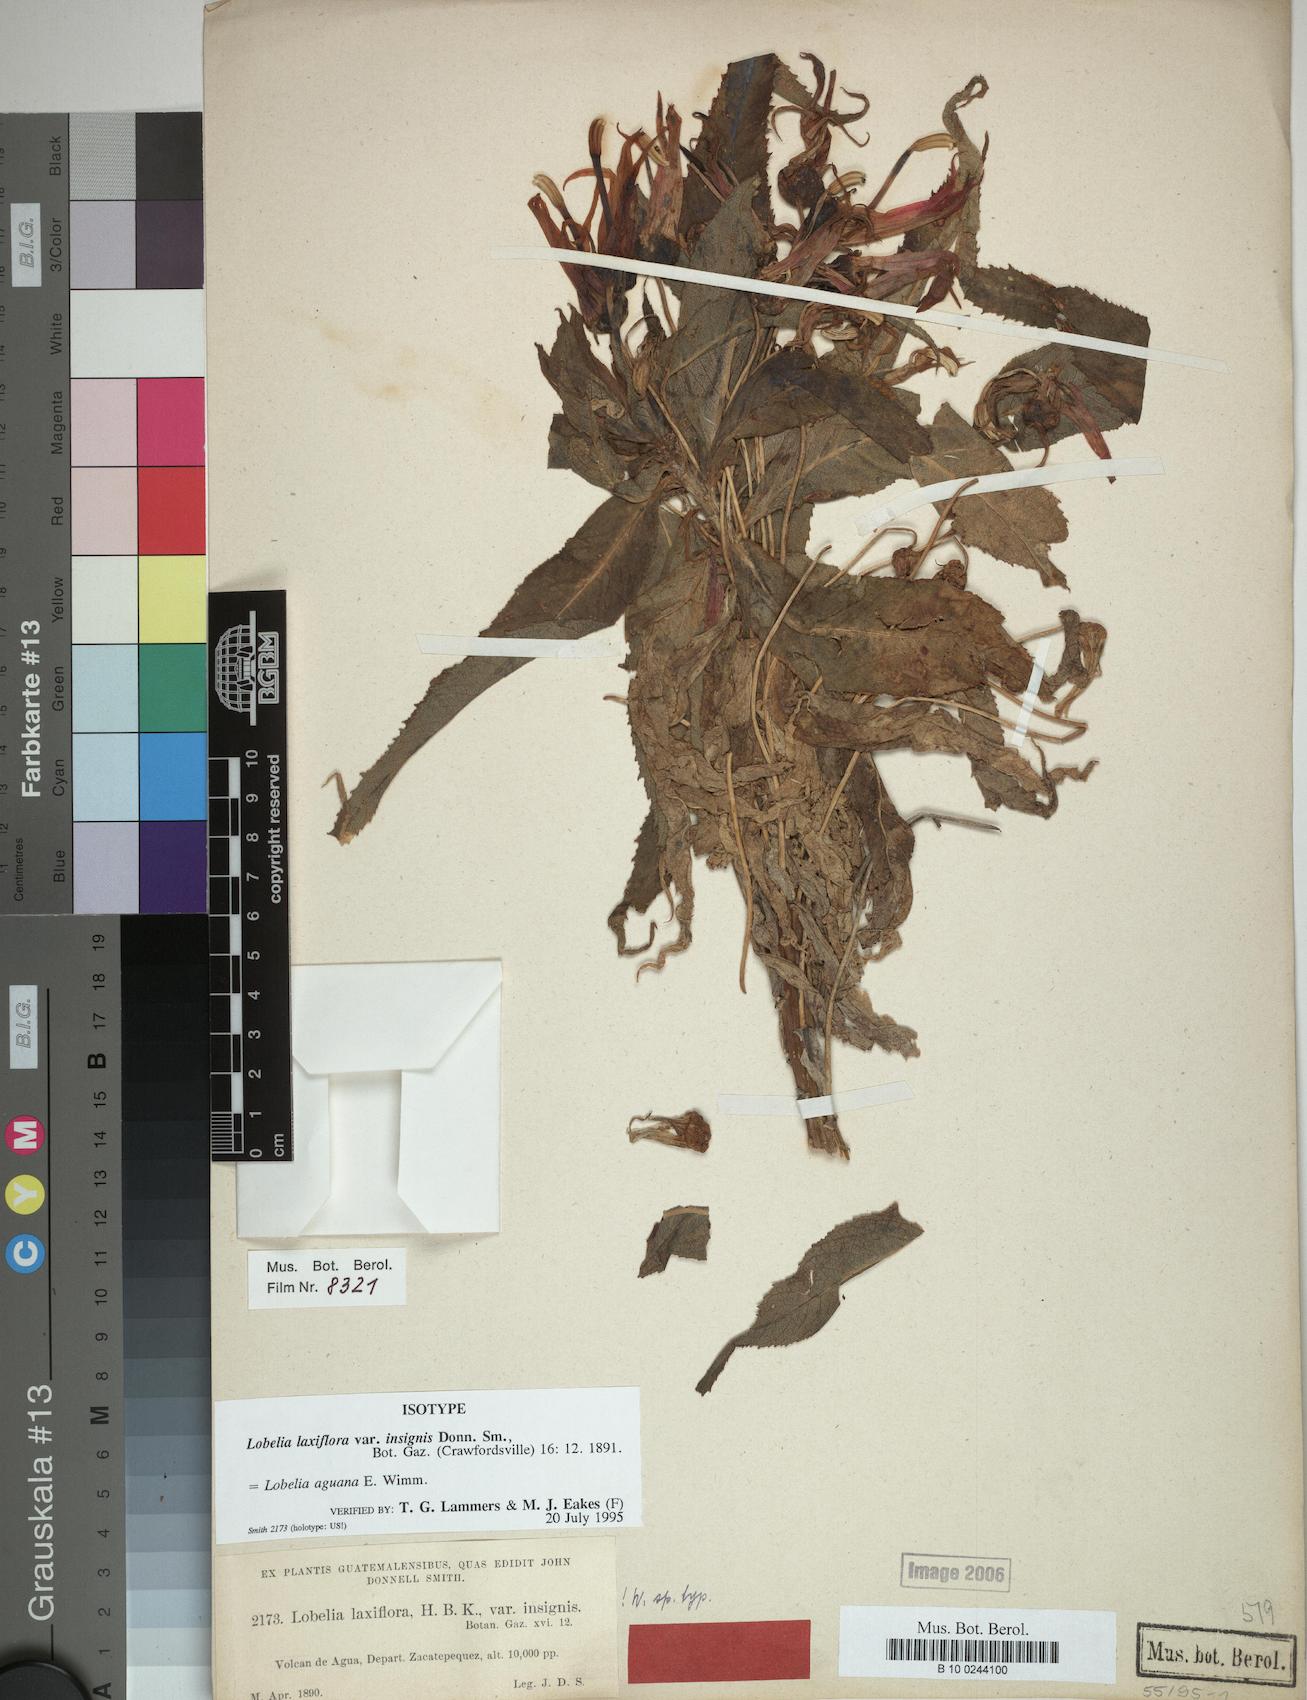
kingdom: Plantae
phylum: Tracheophyta
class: Magnoliopsida
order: Asterales
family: Campanulaceae
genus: Lobelia
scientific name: Lobelia aguana
